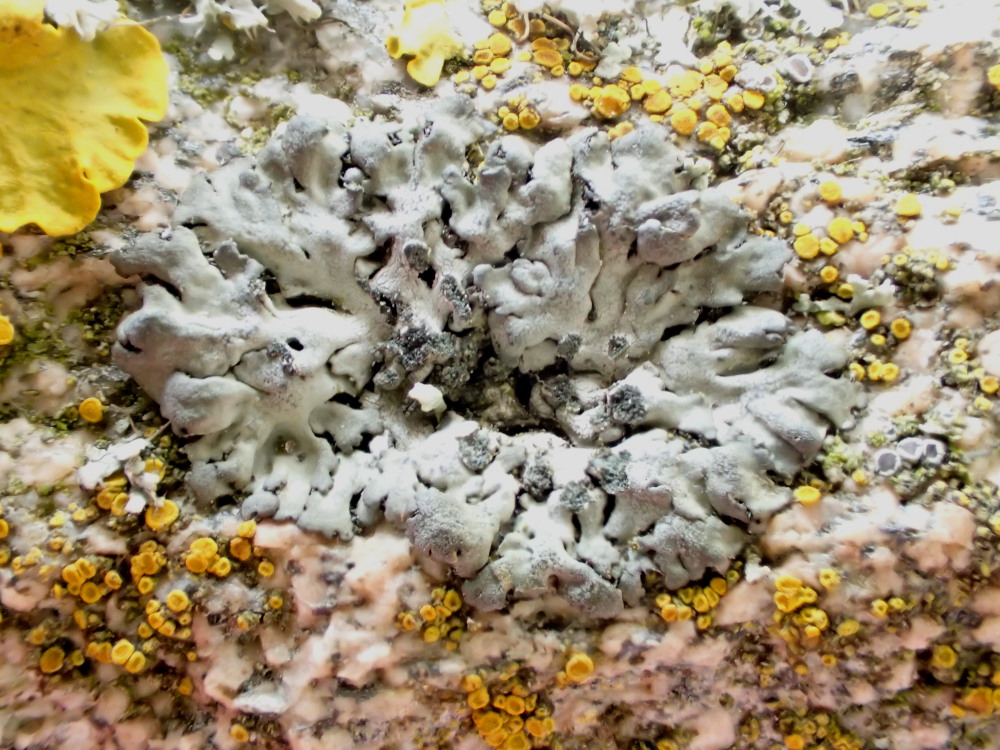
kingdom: Fungi
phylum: Ascomycota
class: Lecanoromycetes
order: Caliciales
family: Physciaceae
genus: Phaeophyscia
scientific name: Phaeophyscia orbicularis
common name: grågrøn rosetlav
